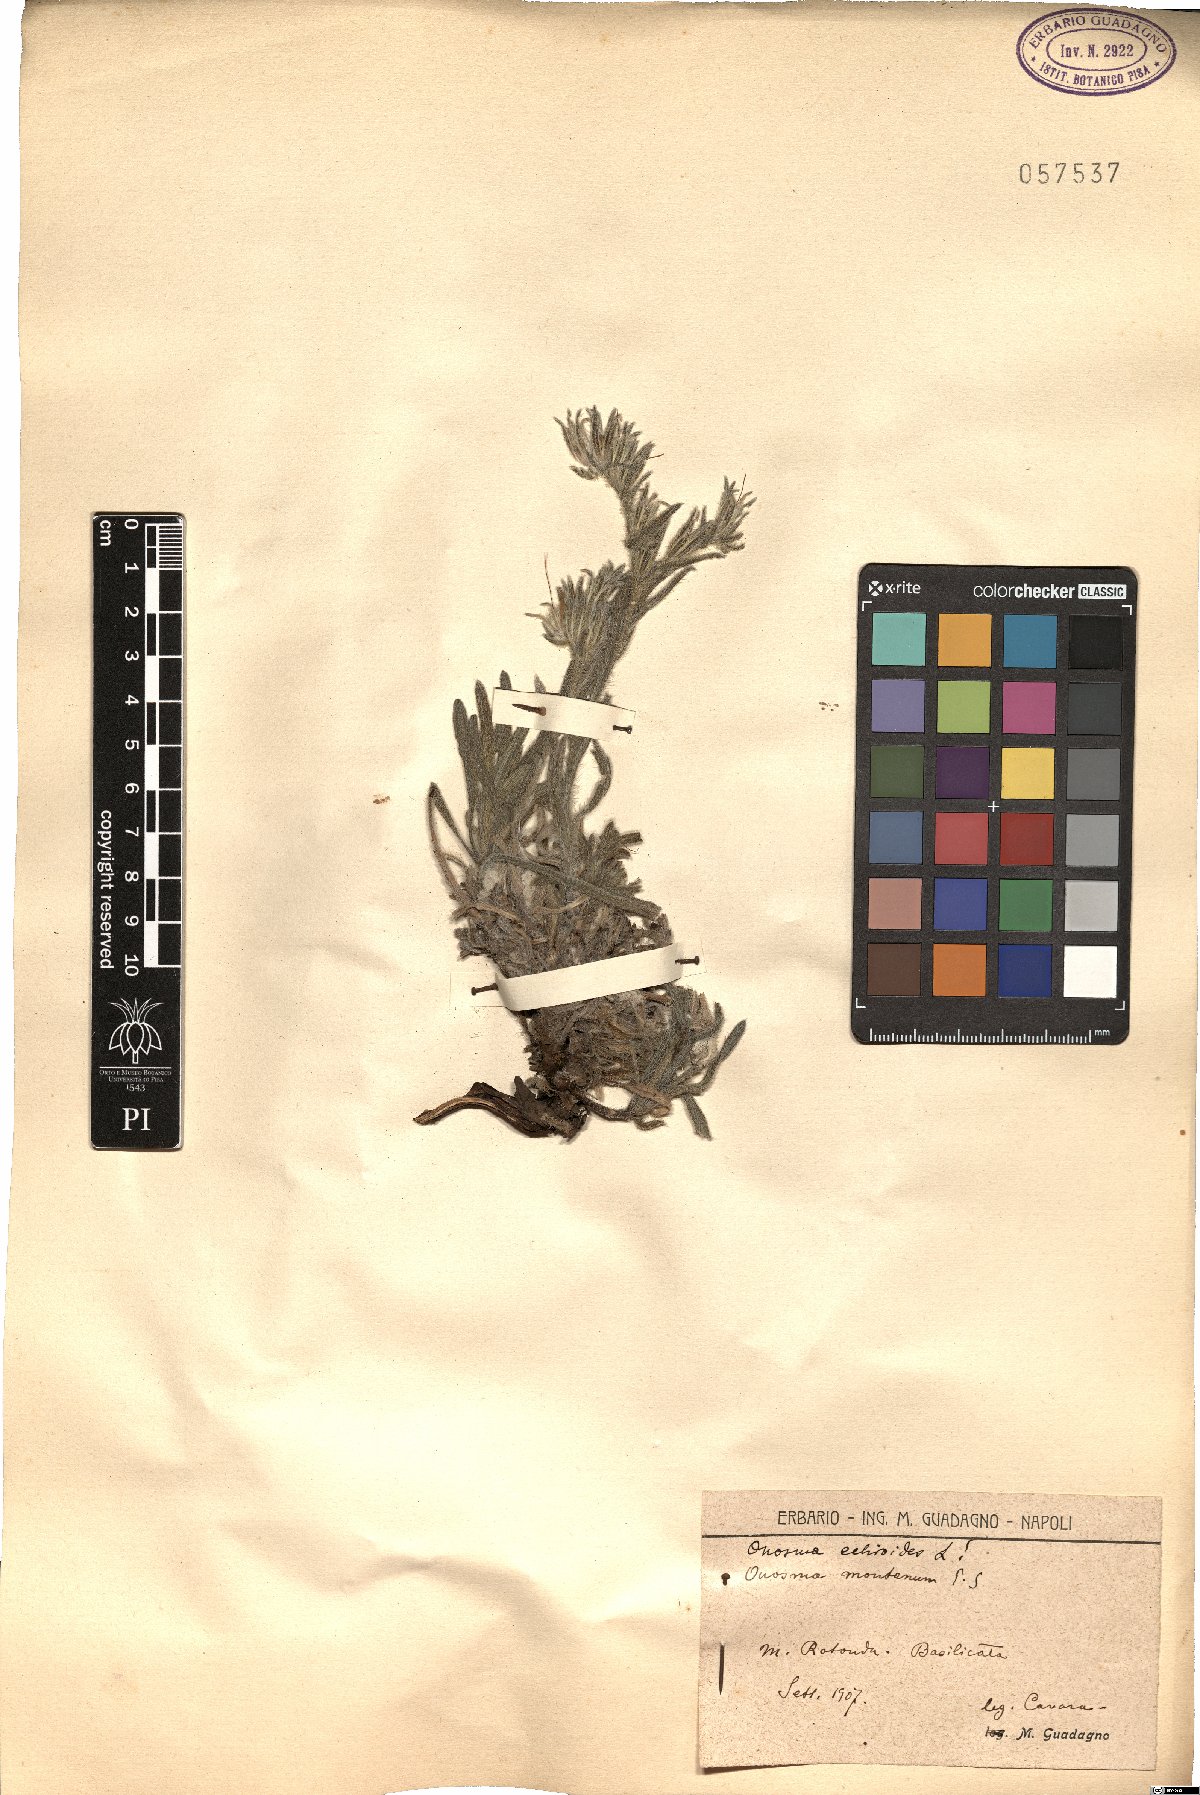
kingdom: Plantae
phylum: Tracheophyta
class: Magnoliopsida
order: Boraginales
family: Boraginaceae
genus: Onosma
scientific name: Onosma echioides
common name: Goldendrop
